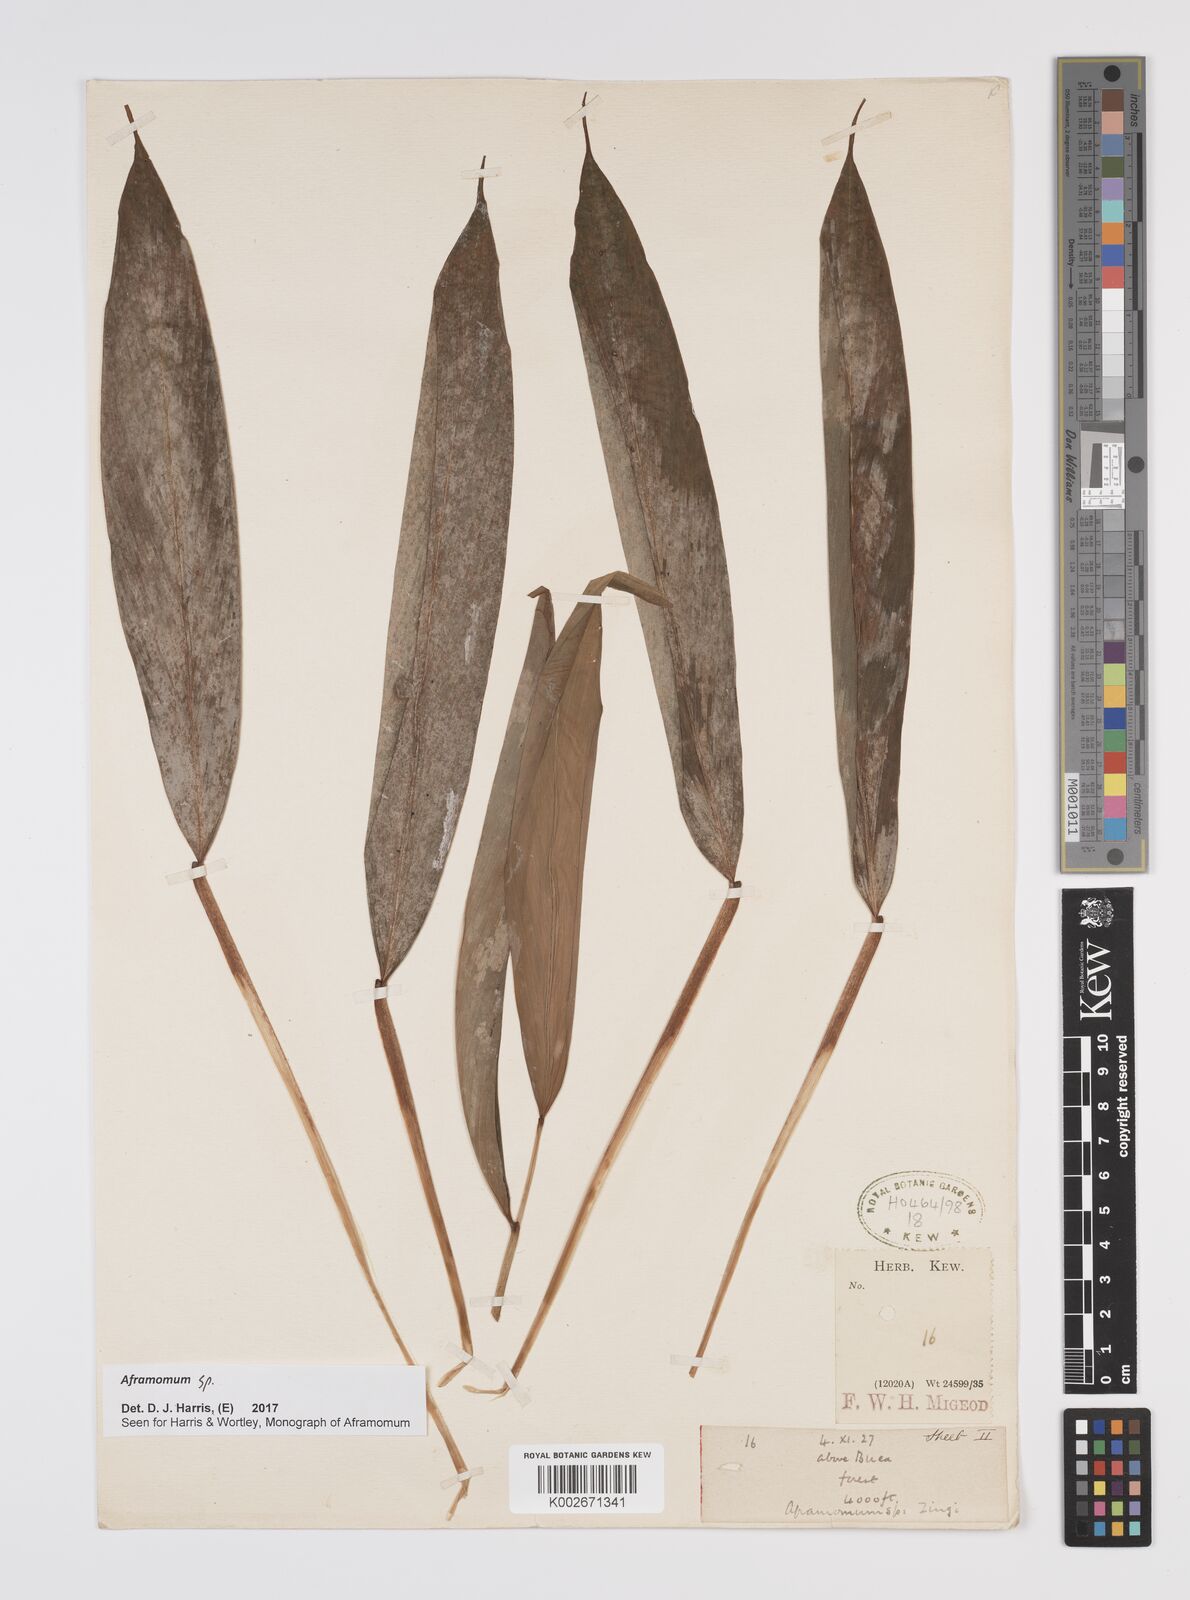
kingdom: Plantae
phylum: Tracheophyta
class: Liliopsida
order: Zingiberales
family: Zingiberaceae
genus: Aframomum
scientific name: Aframomum
